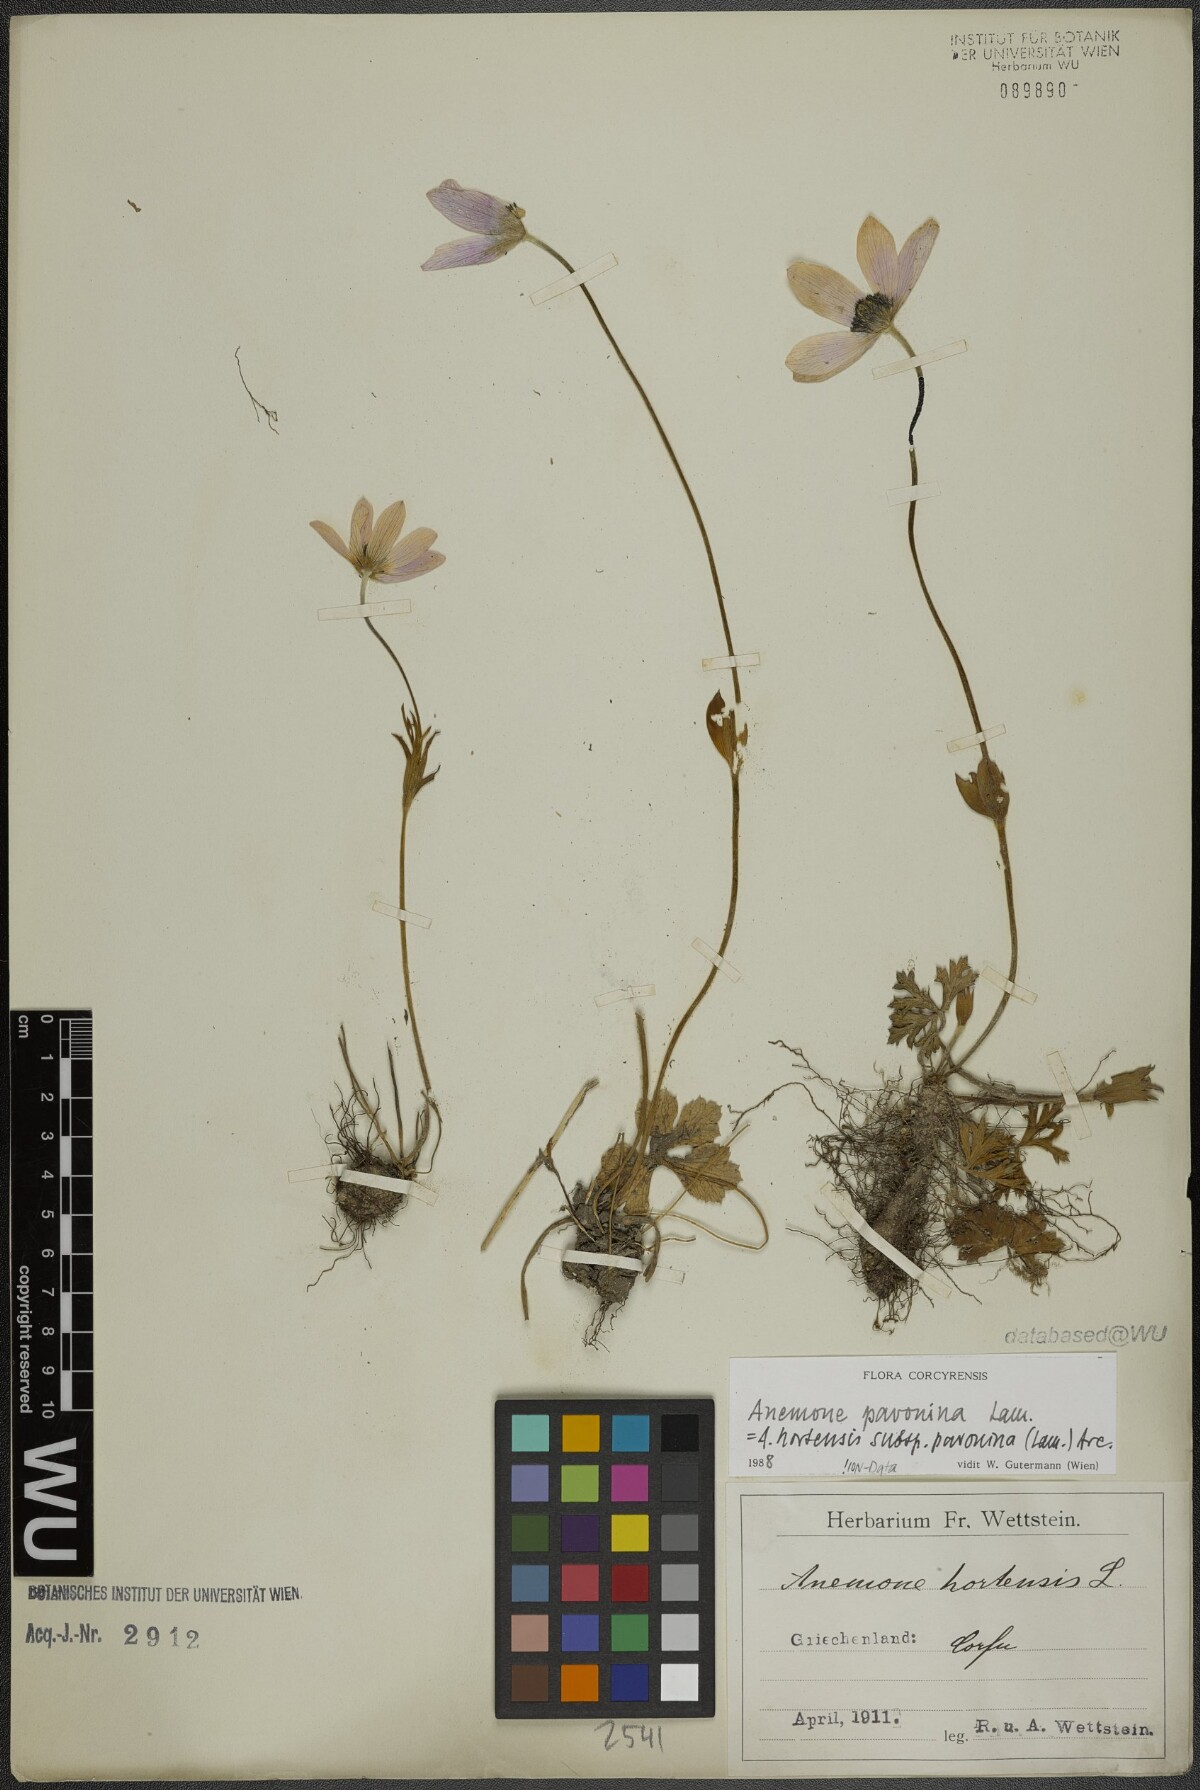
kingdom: Plantae
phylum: Tracheophyta
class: Magnoliopsida
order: Ranunculales
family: Ranunculaceae
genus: Anemone
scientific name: Anemone pavonina
